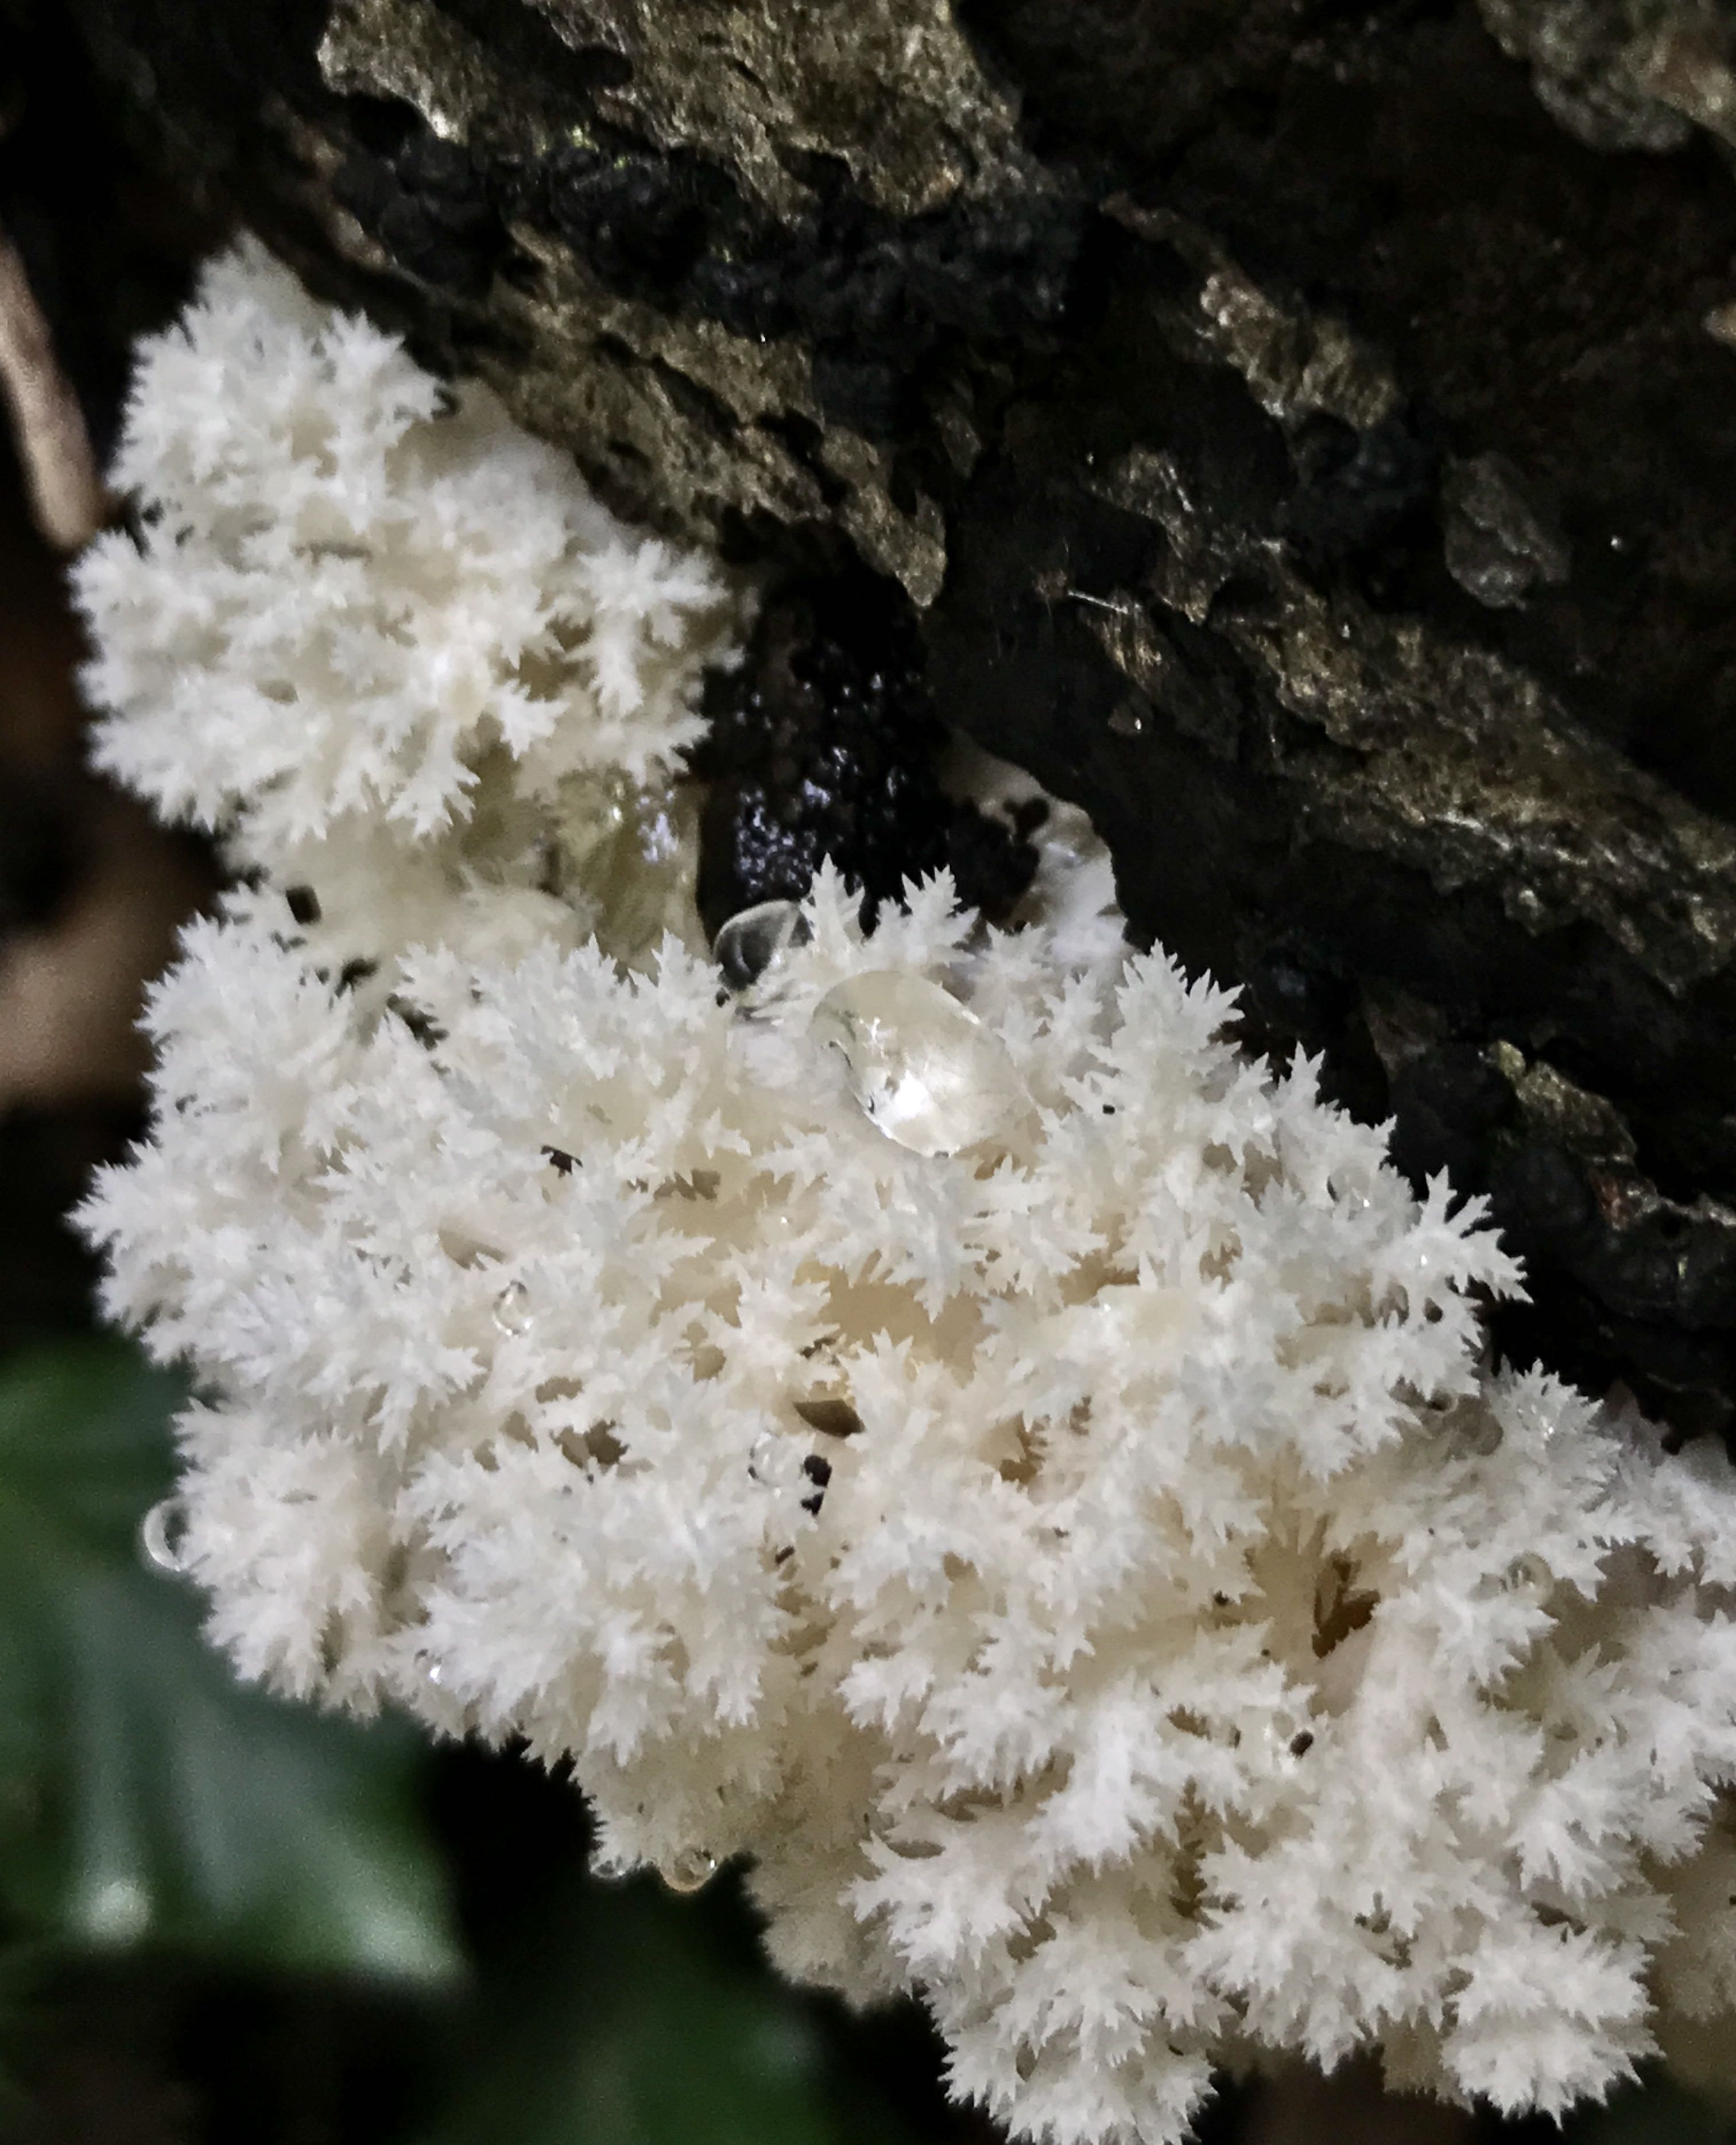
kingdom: Fungi
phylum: Basidiomycota
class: Agaricomycetes
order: Russulales
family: Hericiaceae
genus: Hericium
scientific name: Hericium coralloides
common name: koralpigsvamp
